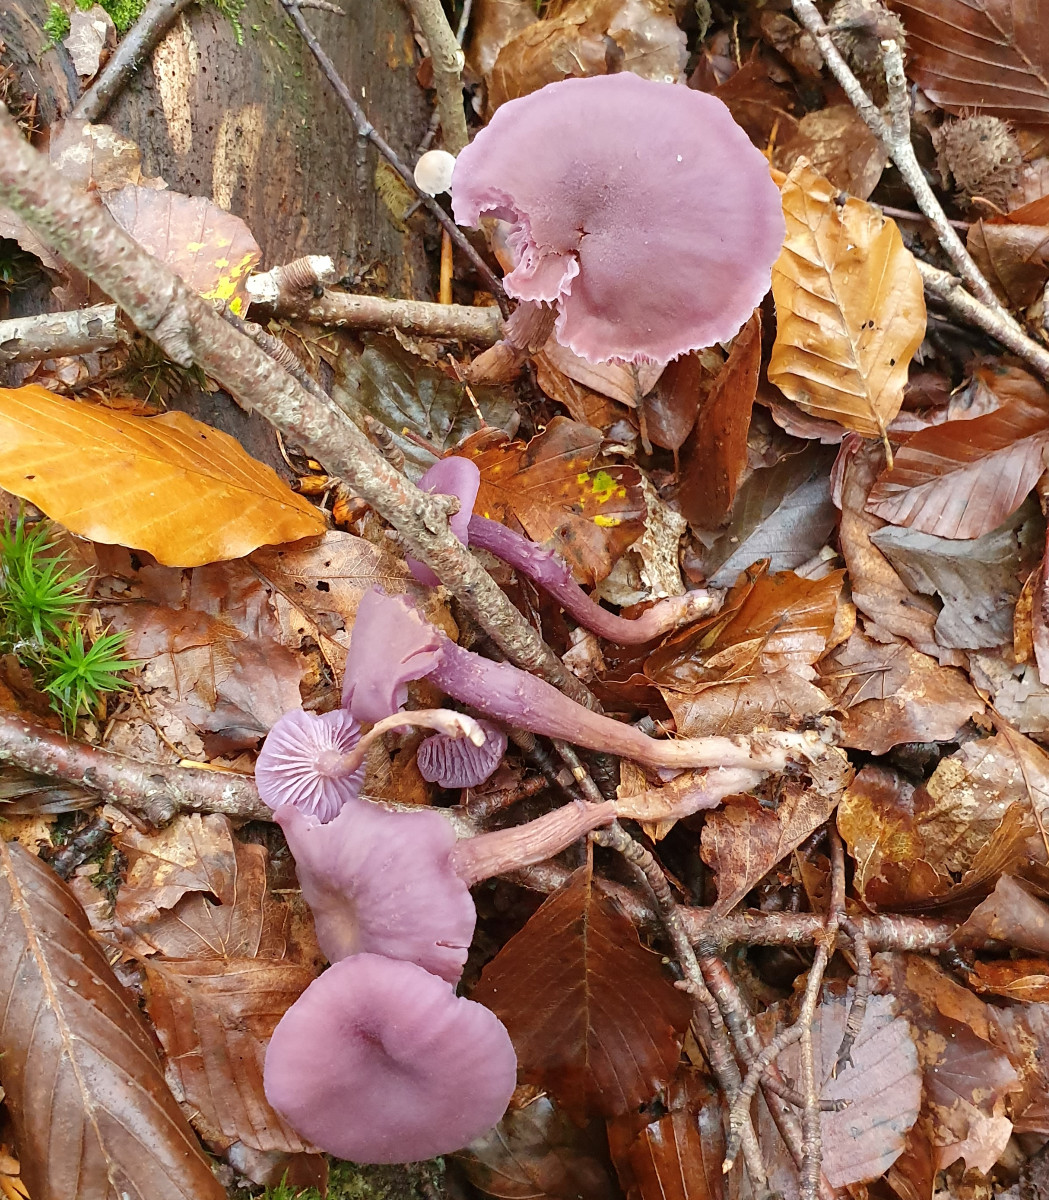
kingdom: Fungi
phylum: Basidiomycota
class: Agaricomycetes
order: Agaricales
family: Hydnangiaceae
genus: Laccaria
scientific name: Laccaria amethystina
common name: violet ametysthat
